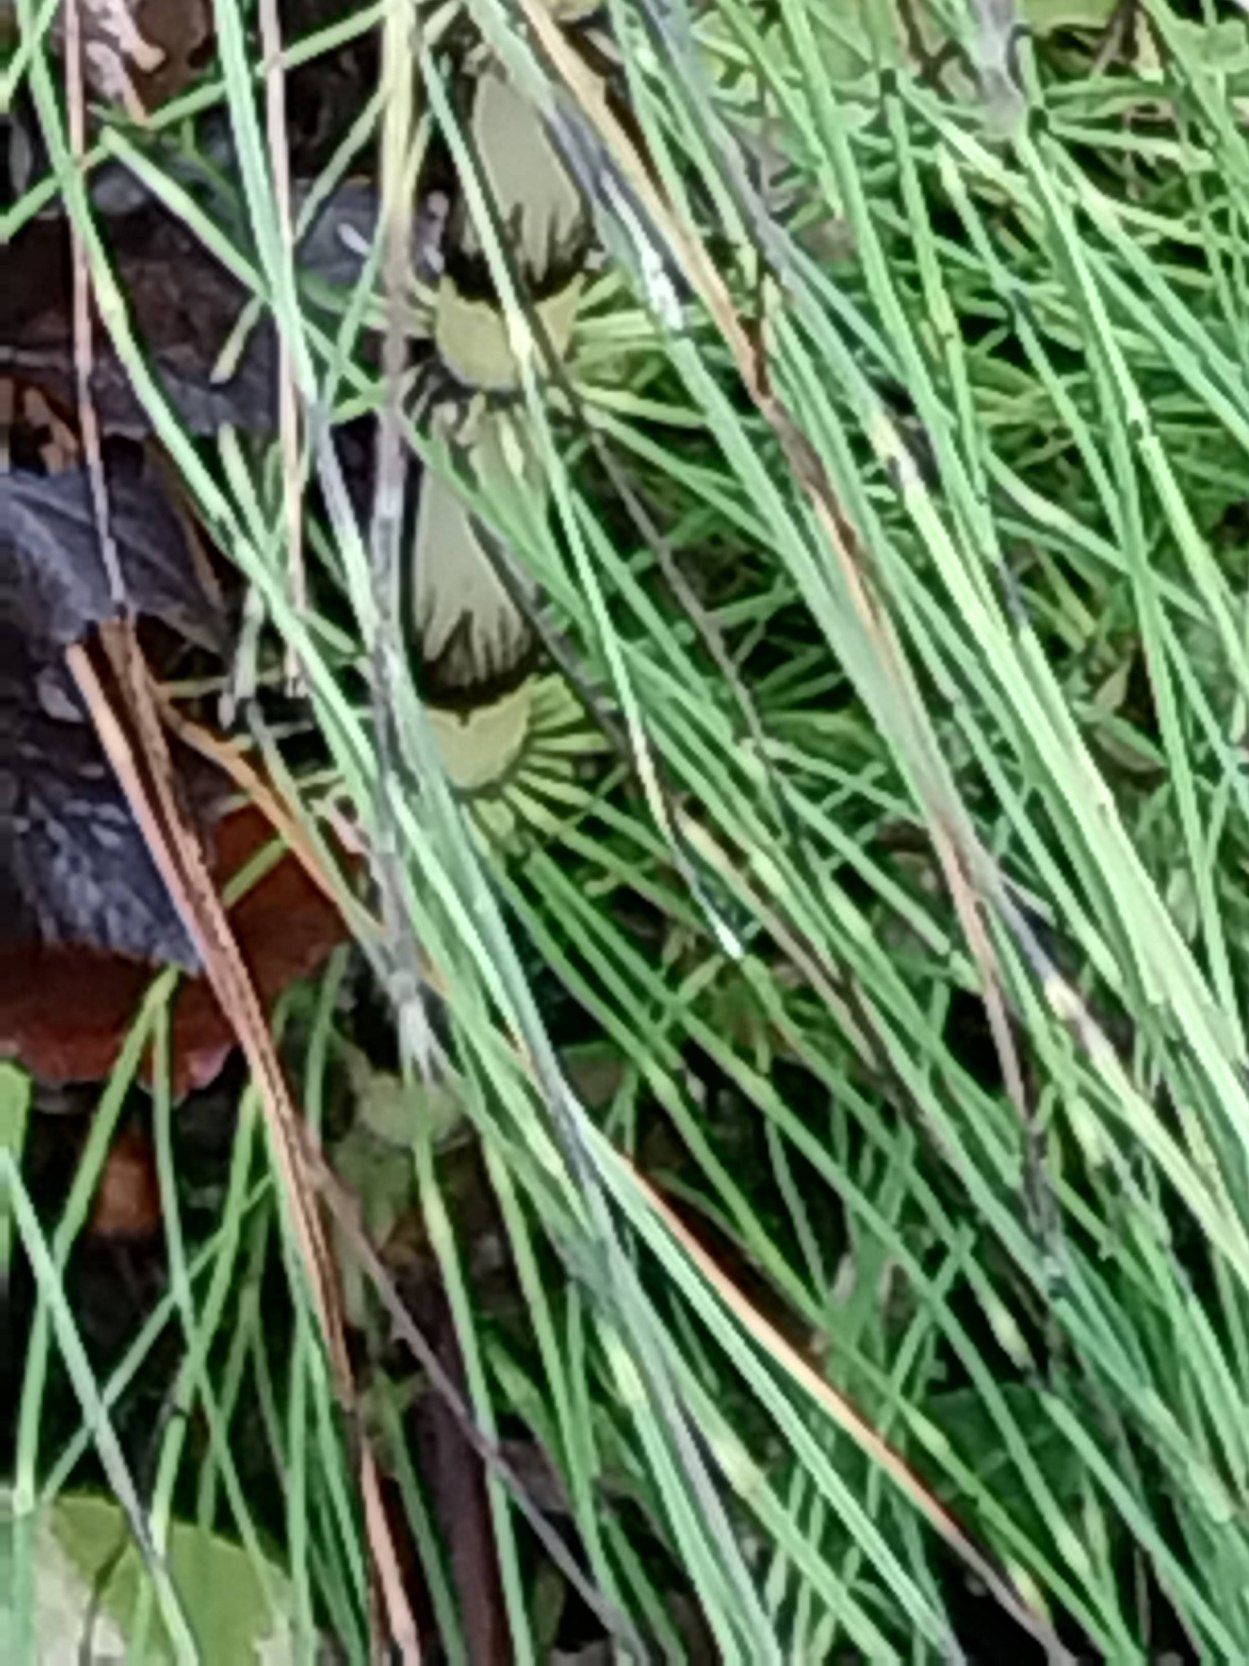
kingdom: Plantae
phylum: Tracheophyta
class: Polypodiopsida
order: Equisetales
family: Equisetaceae
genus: Equisetum
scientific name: Equisetum telmateia
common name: Elfenbens-padderok
